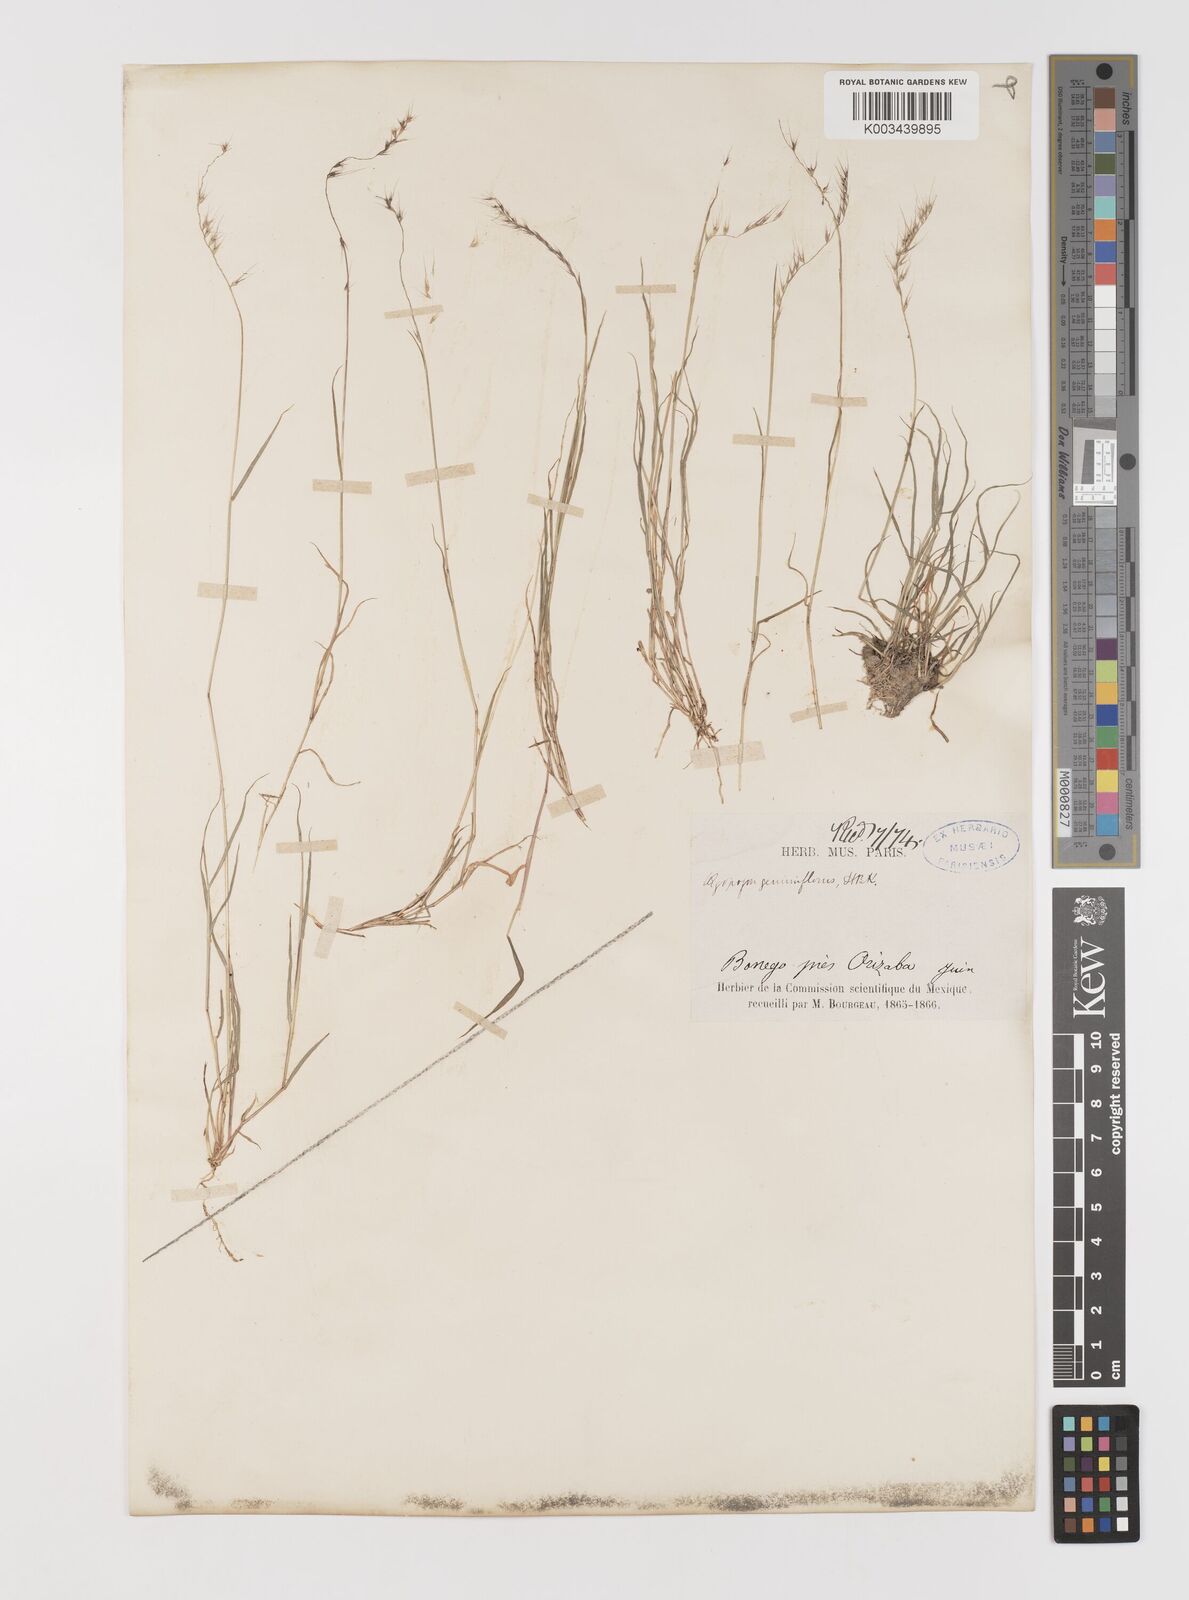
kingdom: Plantae
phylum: Tracheophyta
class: Liliopsida
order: Poales
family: Poaceae
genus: Muhlenbergia
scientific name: Muhlenbergia cenchroides
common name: Relaxgrass
